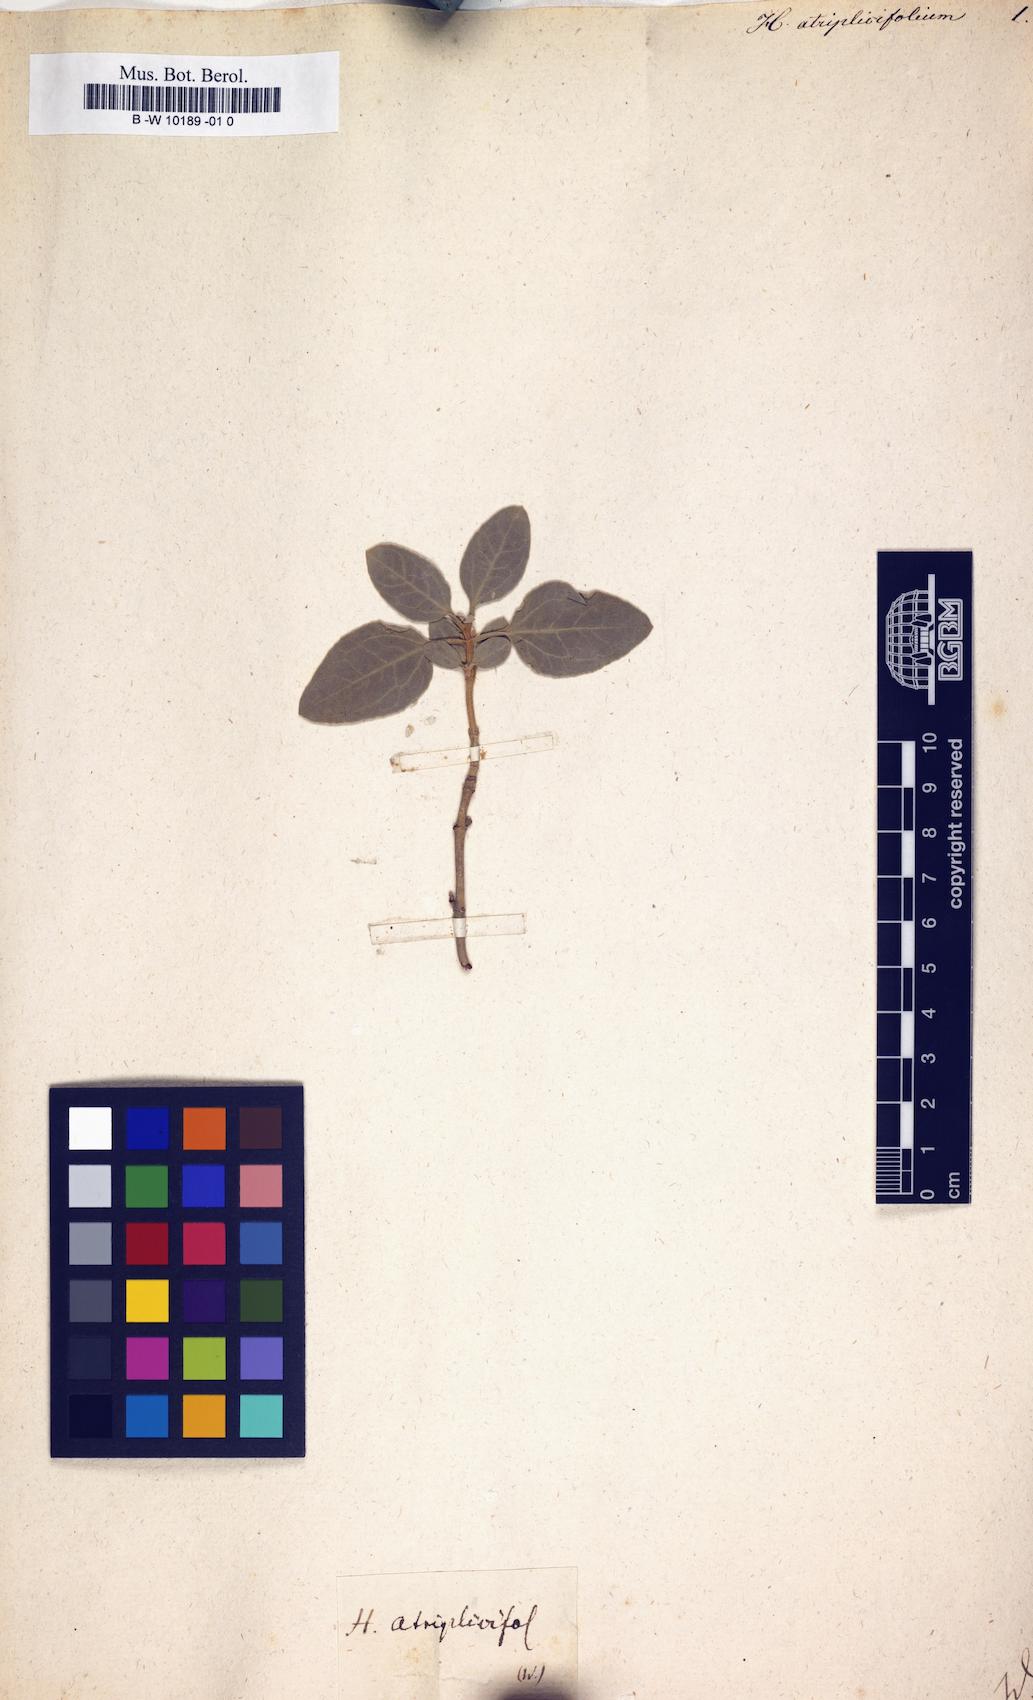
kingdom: Plantae
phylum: Tracheophyta
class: Magnoliopsida
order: Malvales
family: Cistaceae
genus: Halimium
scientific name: Halimium atriplicifolium
